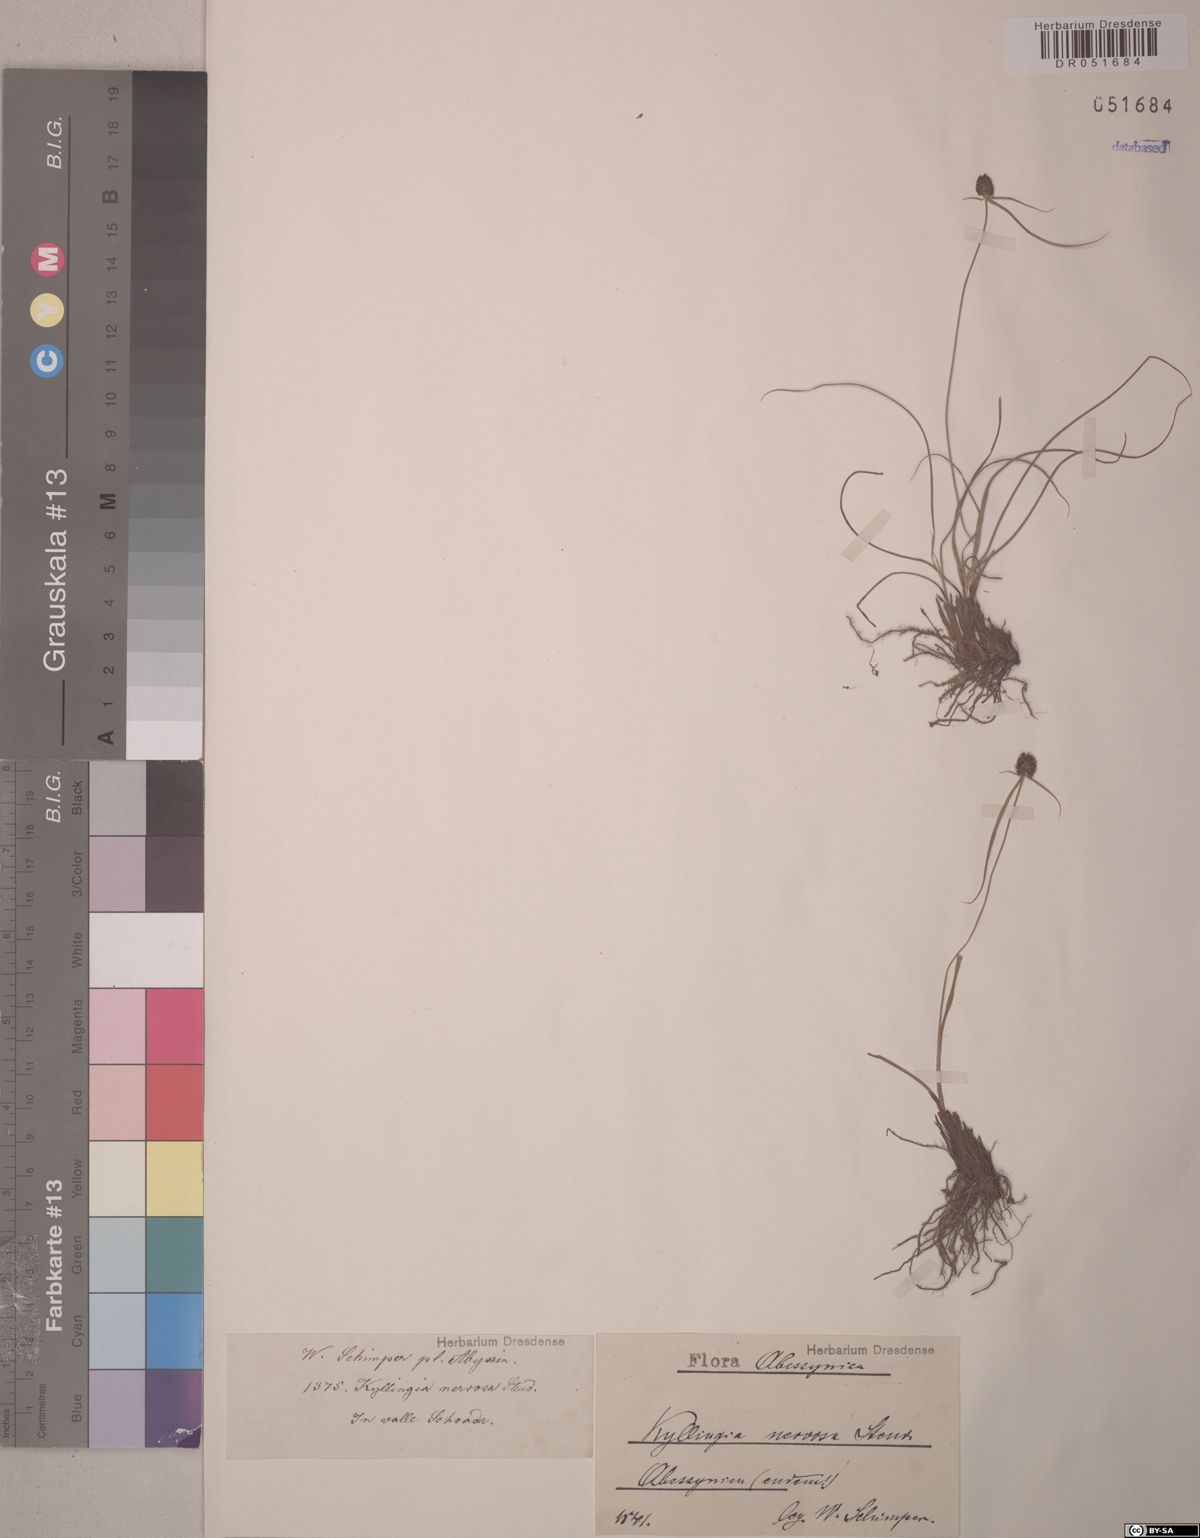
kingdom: Plantae
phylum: Tracheophyta
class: Liliopsida
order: Poales
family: Cyperaceae
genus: Cyperus
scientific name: Cyperus costatus
